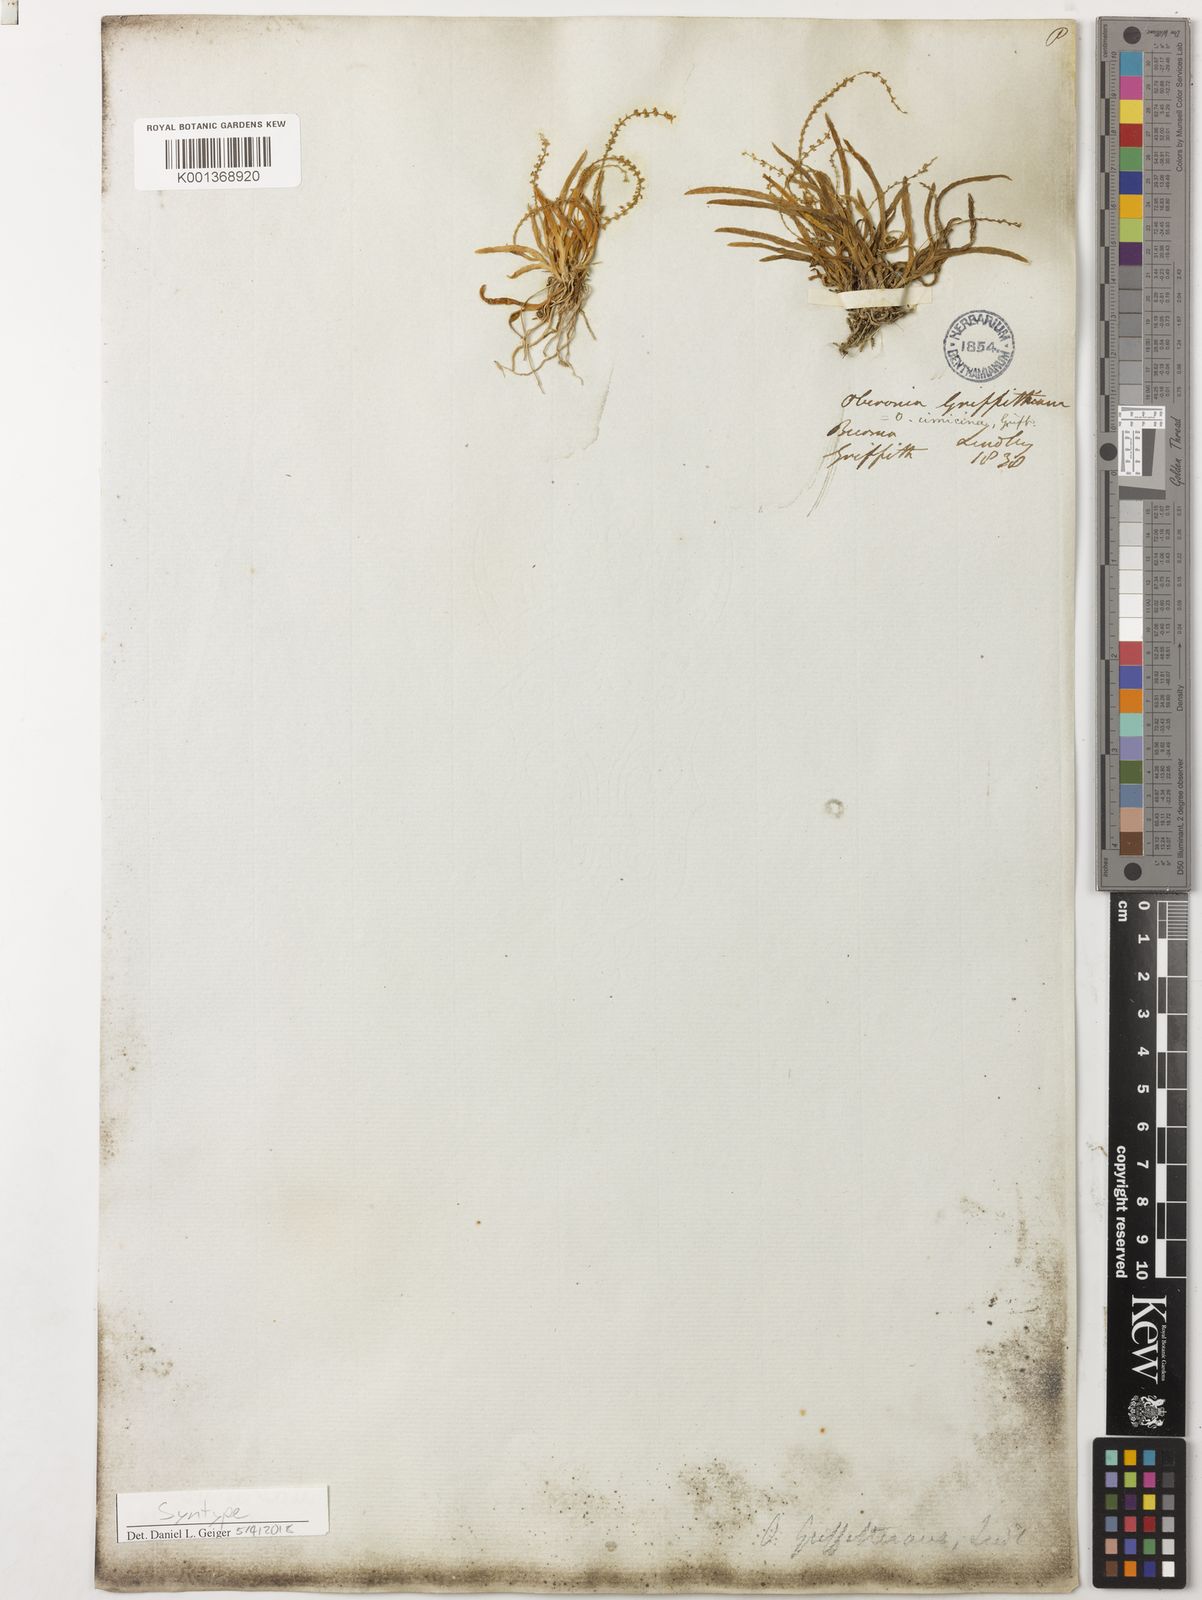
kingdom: Plantae
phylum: Tracheophyta
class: Liliopsida
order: Asparagales
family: Orchidaceae
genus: Oberonia
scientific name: Oberonia griffithiana
